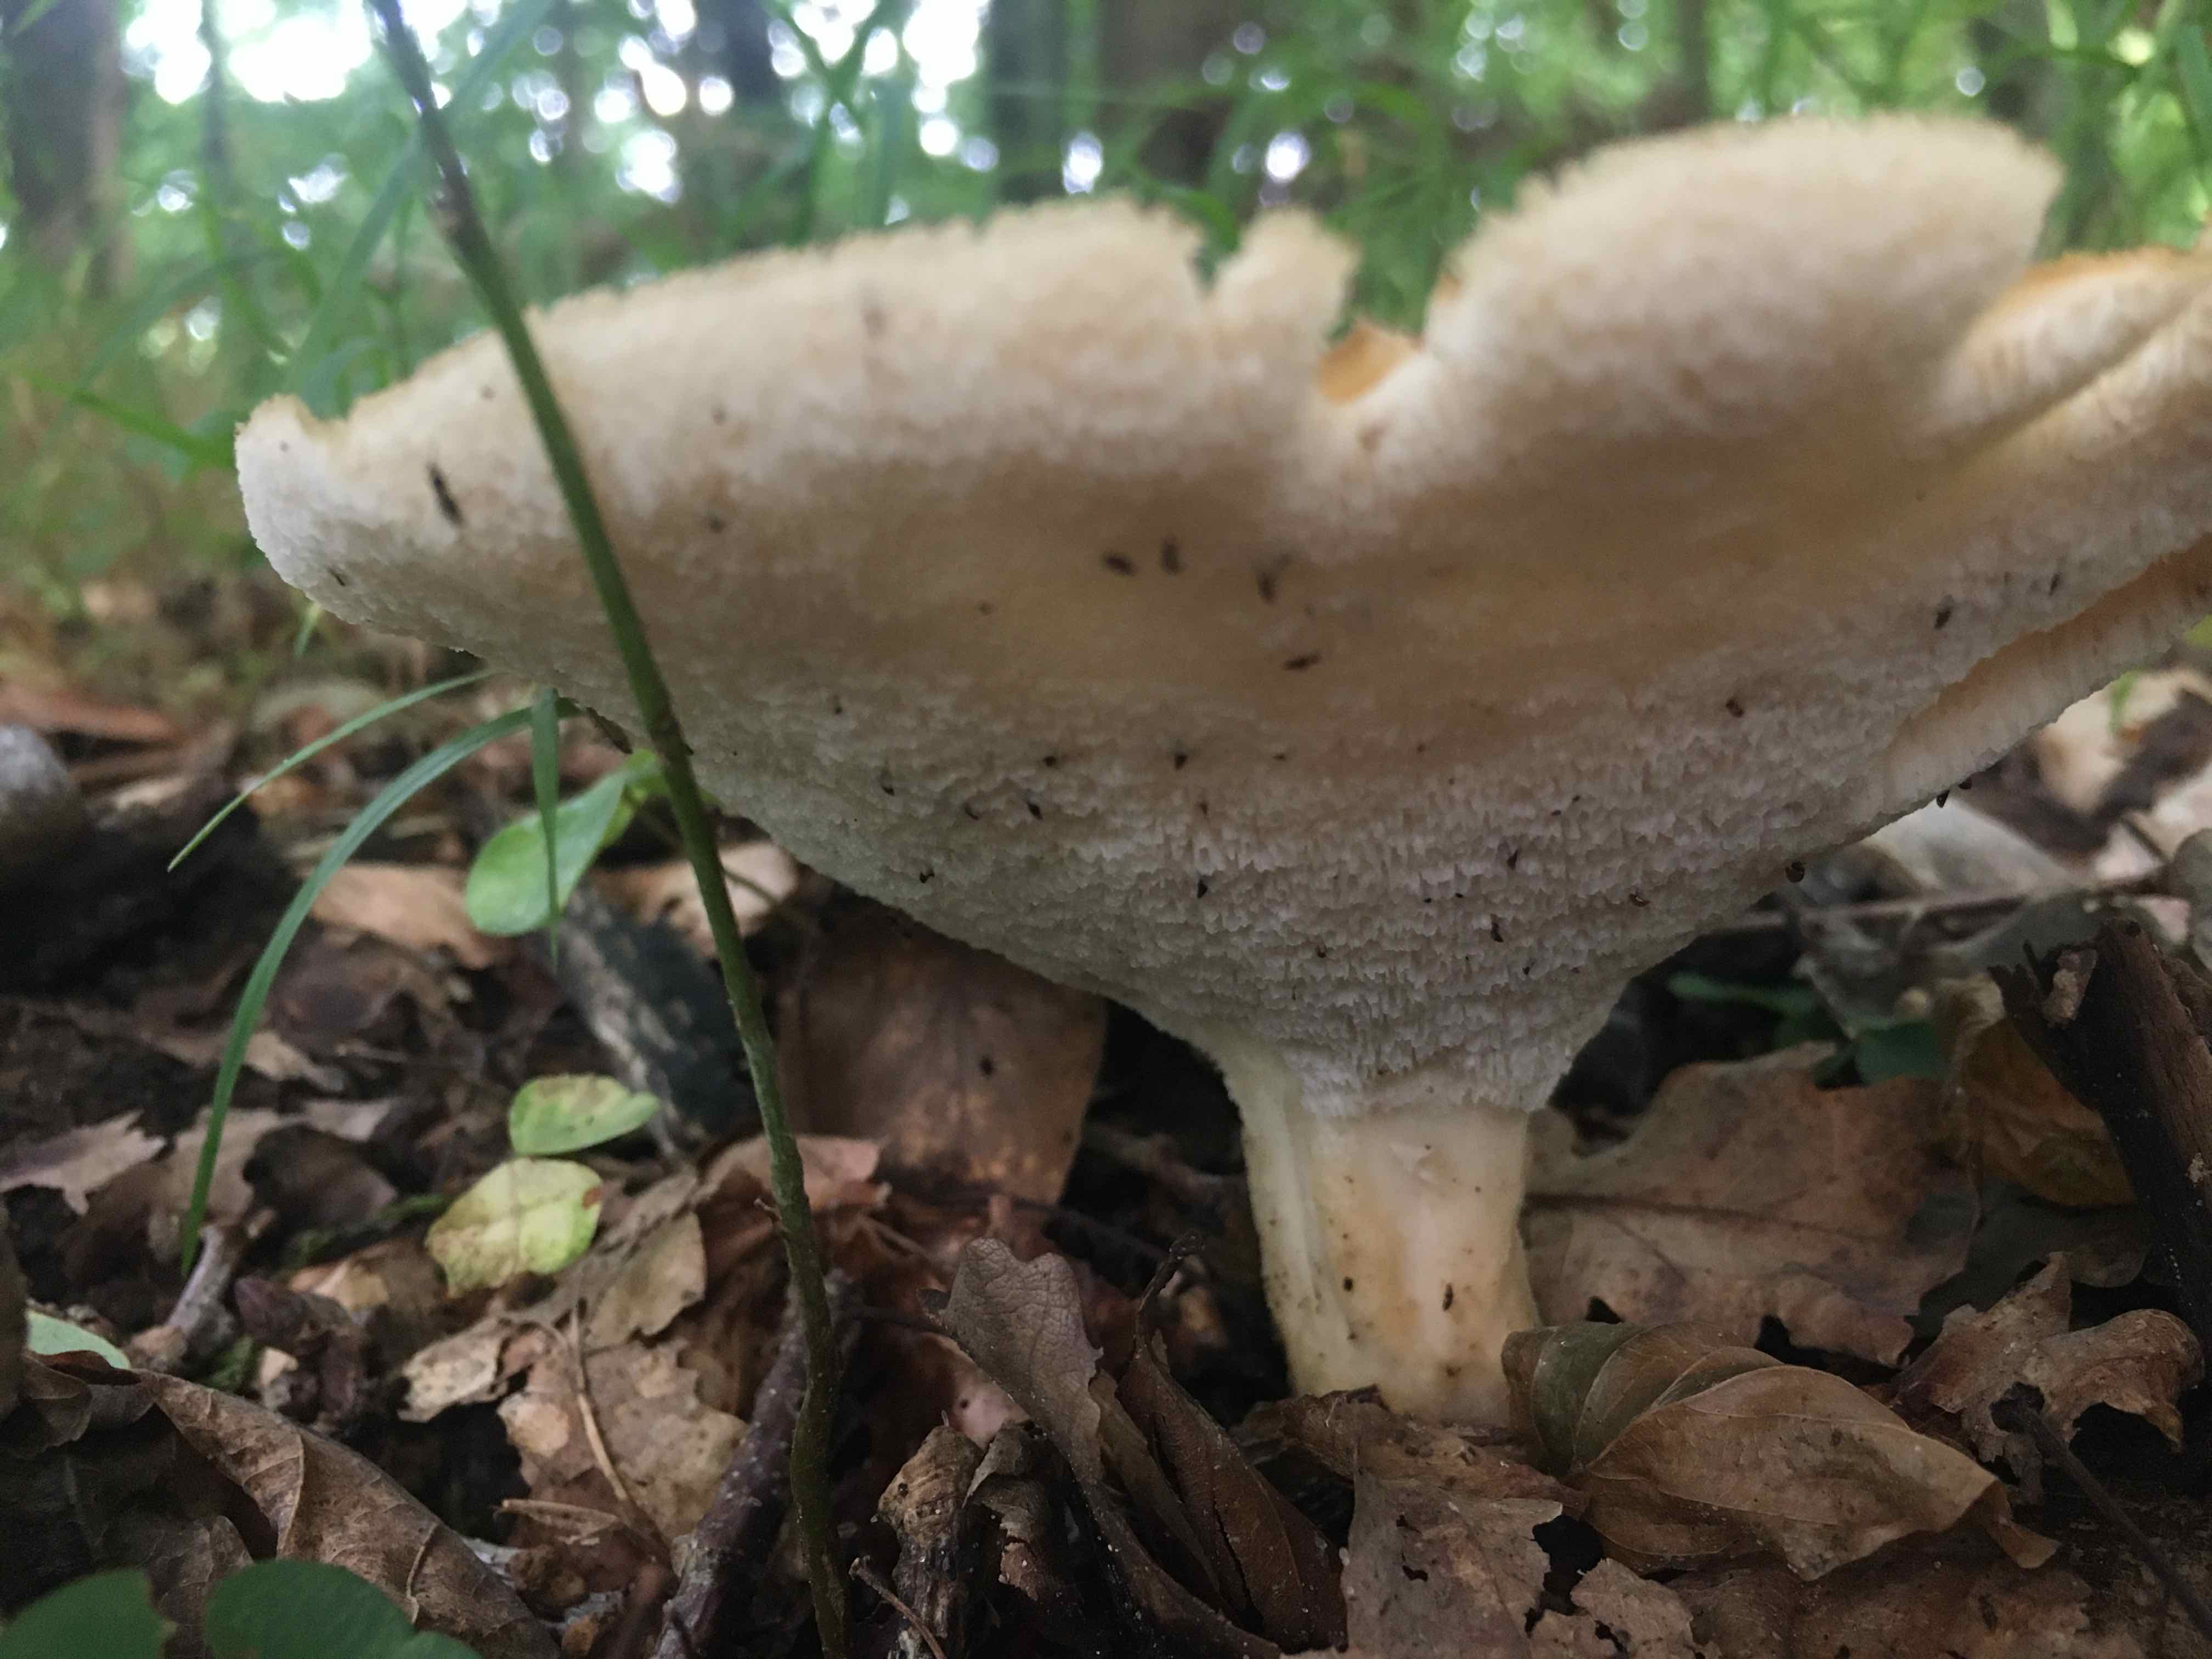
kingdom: Fungi
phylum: Basidiomycota
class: Agaricomycetes
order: Polyporales
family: Polyporaceae
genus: Polyporus
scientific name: Polyporus tuberaster
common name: knoldet stilkporesvamp
